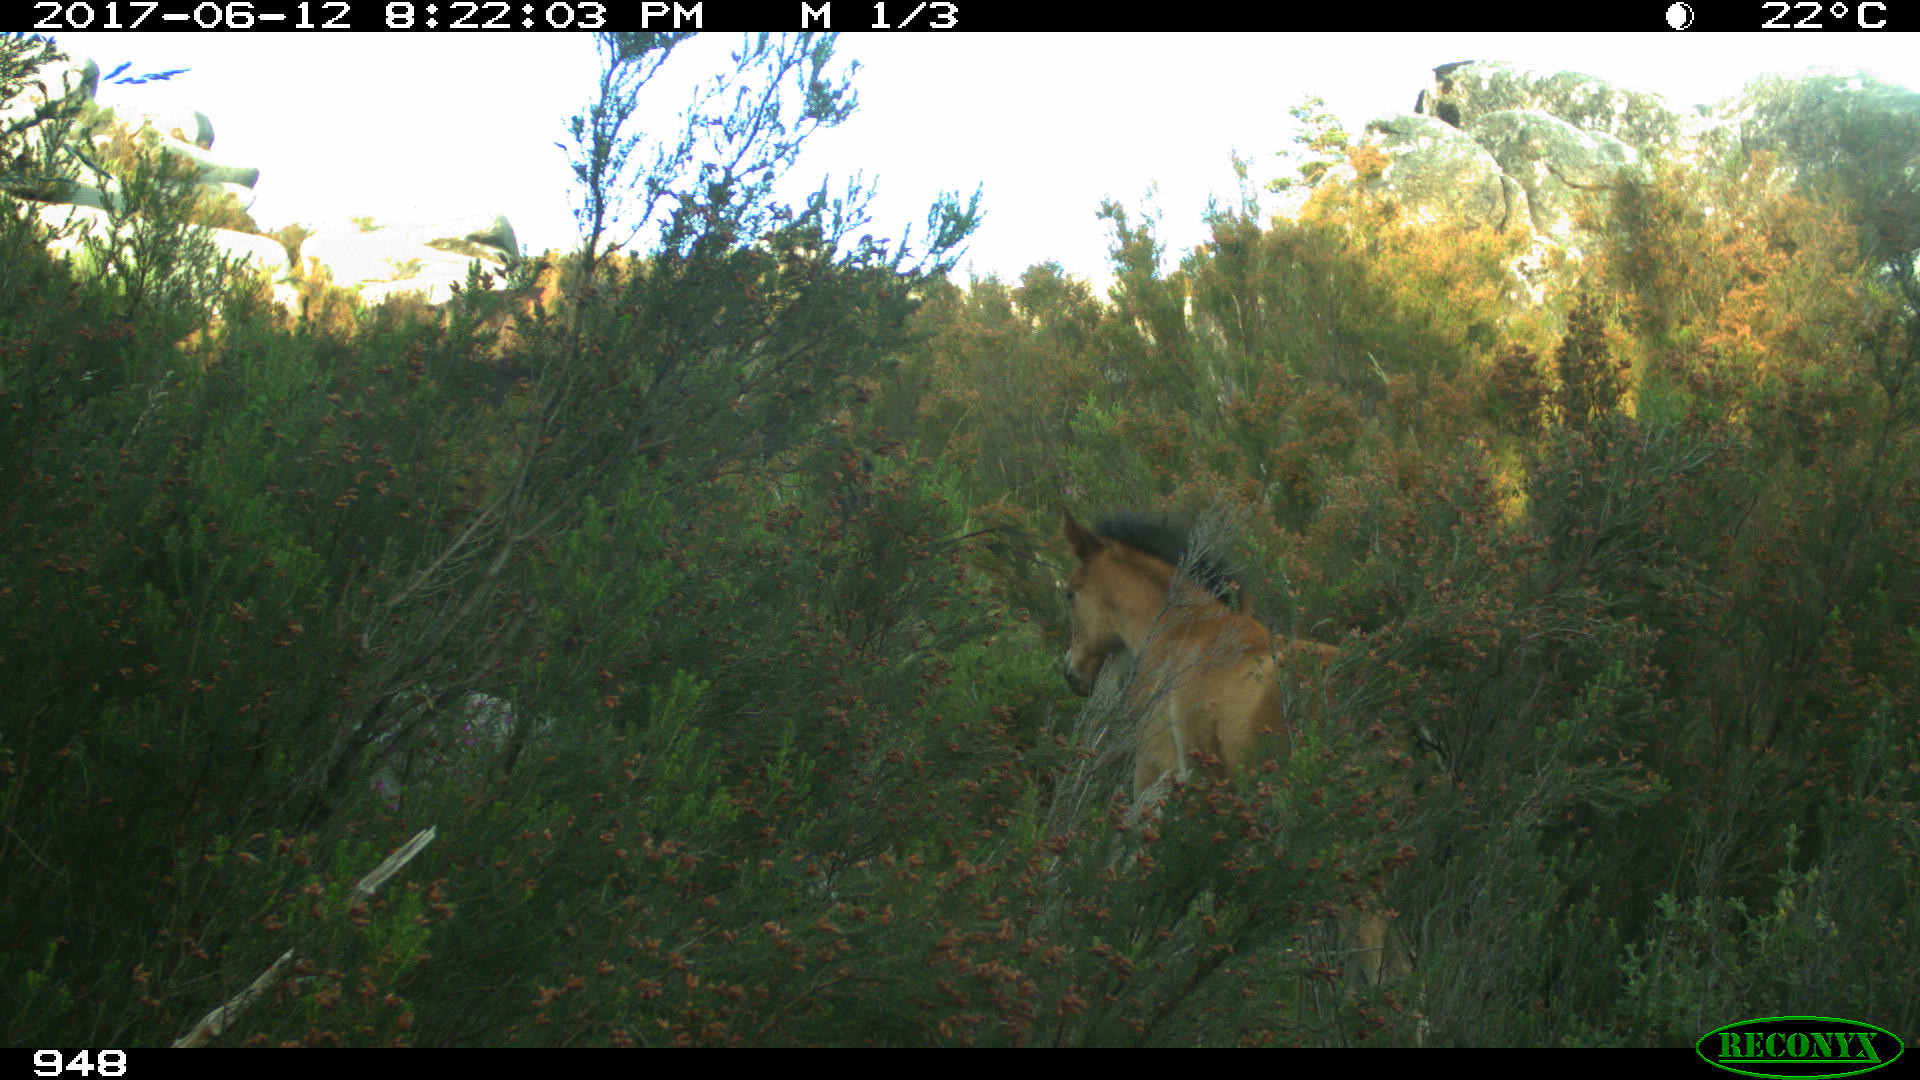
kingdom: Animalia
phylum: Chordata
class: Mammalia
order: Perissodactyla
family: Equidae
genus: Equus
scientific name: Equus caballus
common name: Horse
